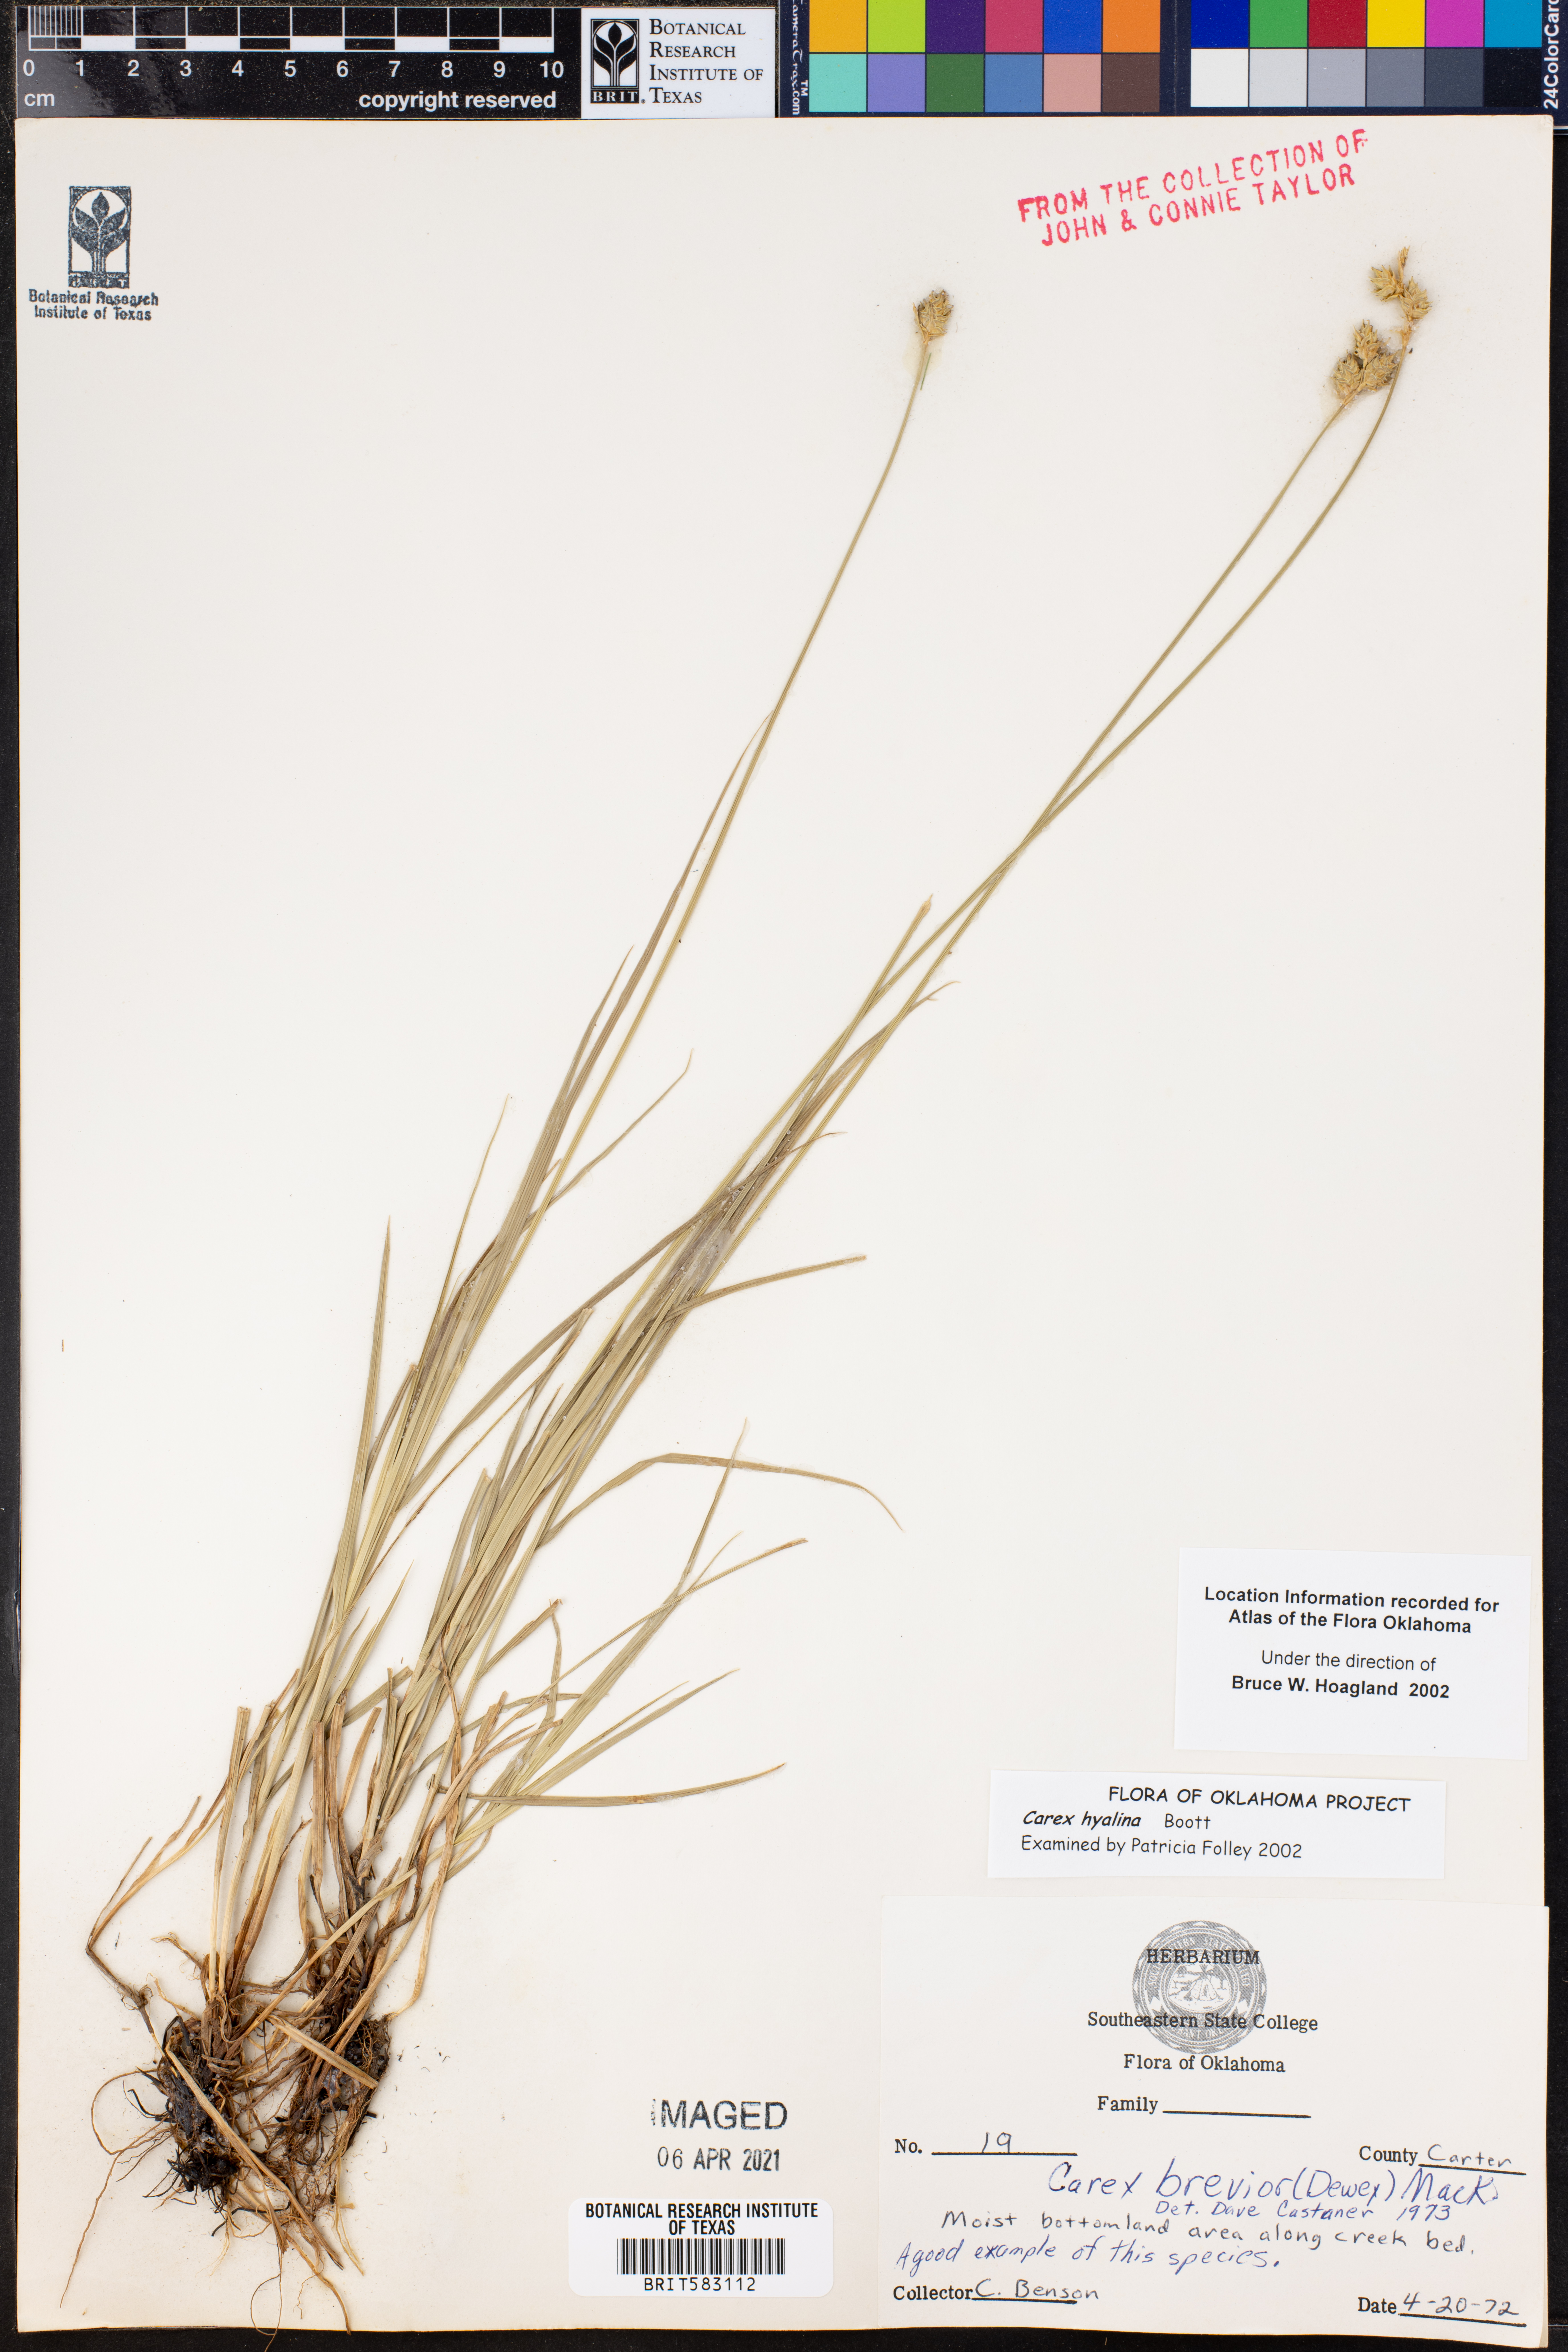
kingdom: Plantae
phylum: Tracheophyta
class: Liliopsida
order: Poales
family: Cyperaceae
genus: Carex
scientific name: Carex hyalina
